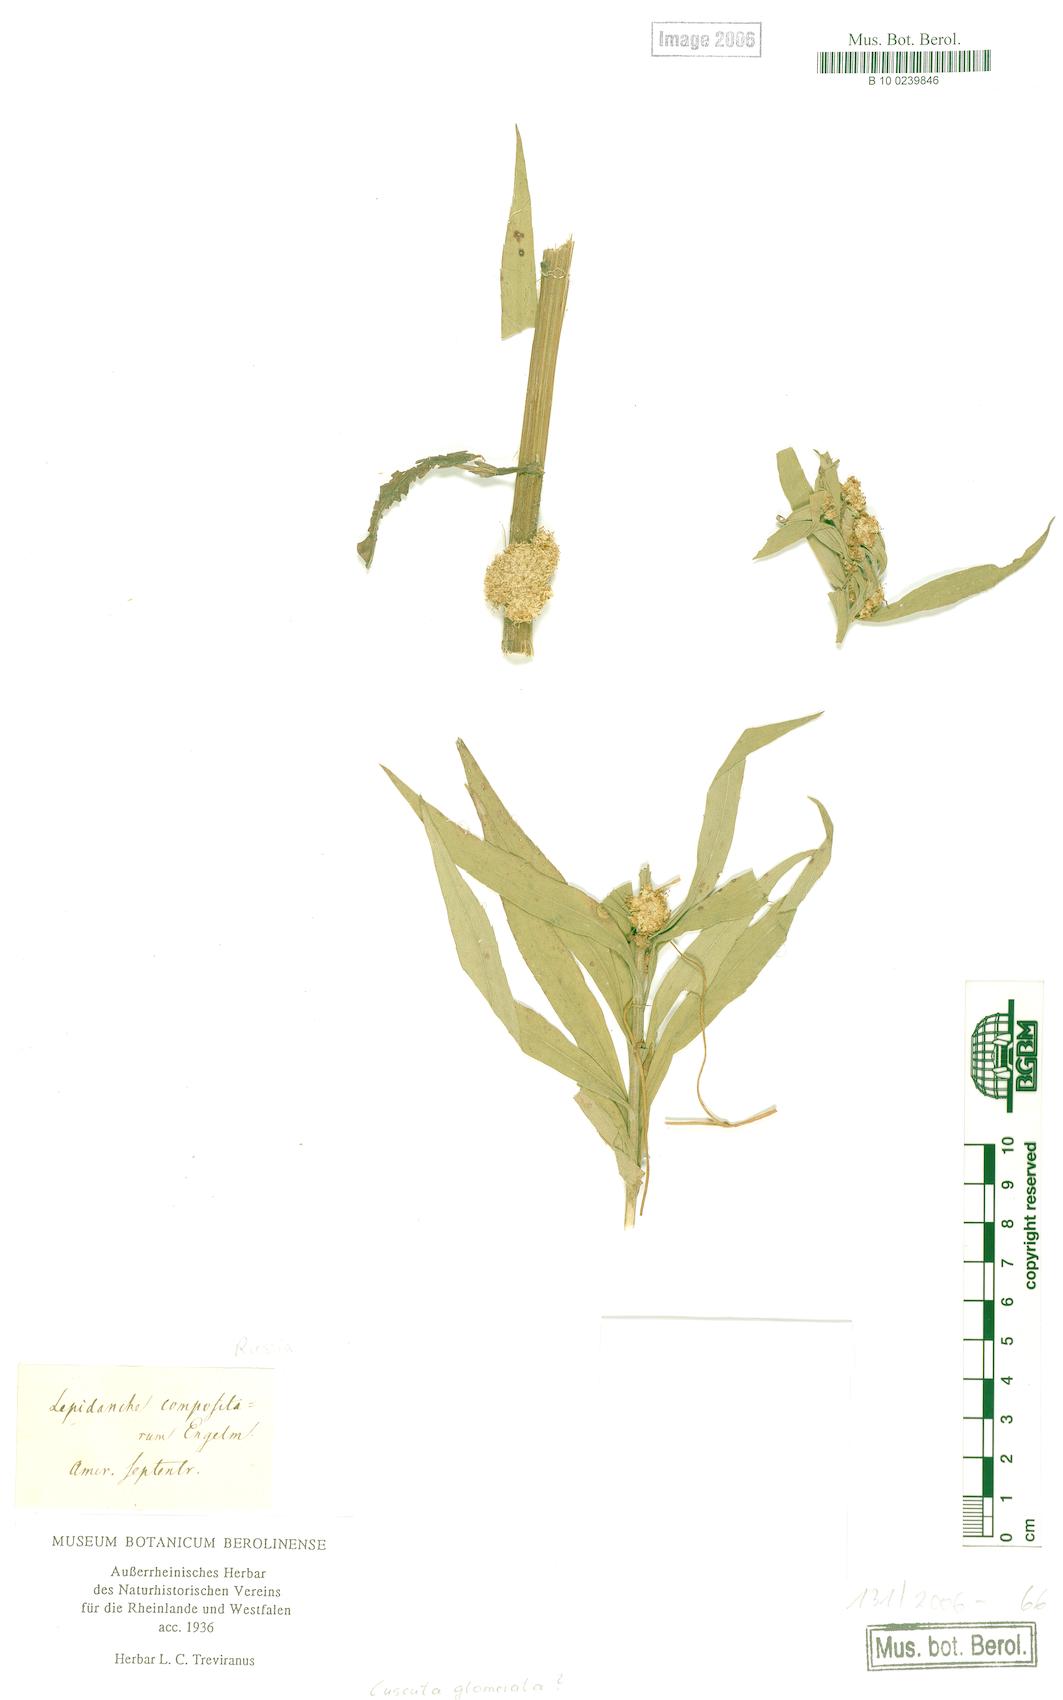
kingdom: Plantae
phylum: Tracheophyta
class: Magnoliopsida
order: Solanales
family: Convolvulaceae
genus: Cuscuta
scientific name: Cuscuta glomerata
